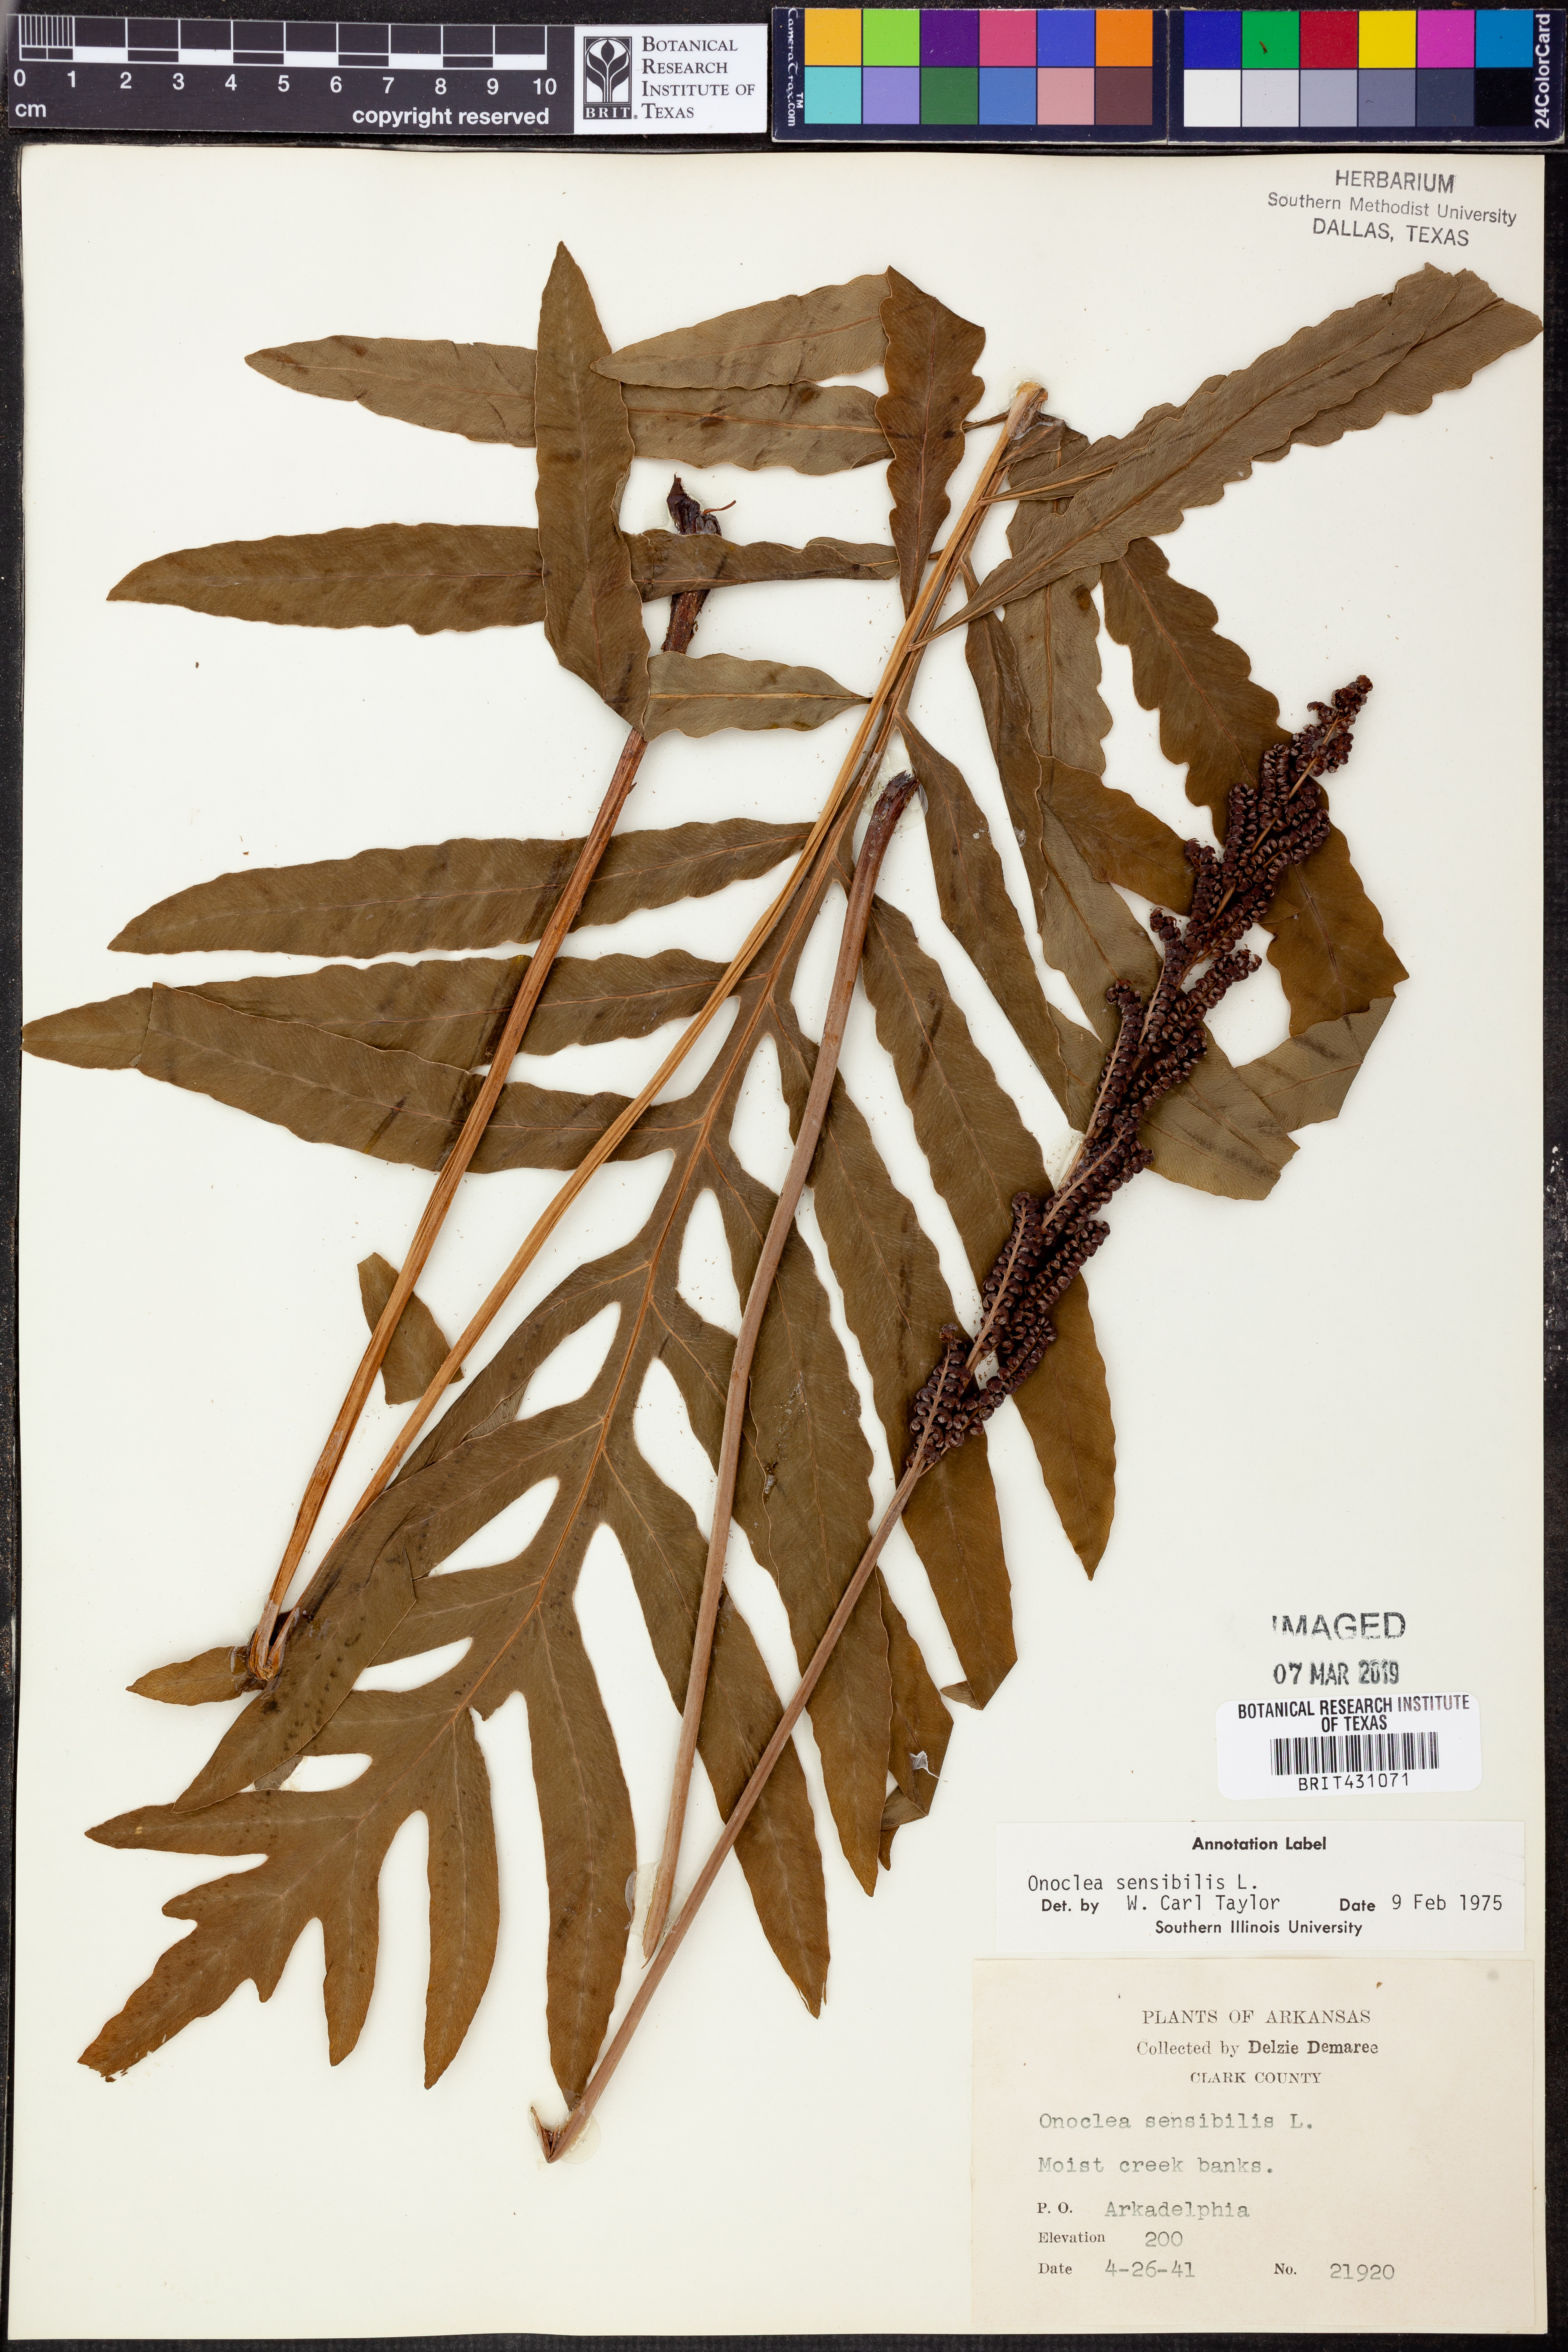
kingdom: Plantae
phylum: Tracheophyta
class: Polypodiopsida
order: Polypodiales
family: Onocleaceae
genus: Onoclea
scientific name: Onoclea sensibilis
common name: Sensitive fern
